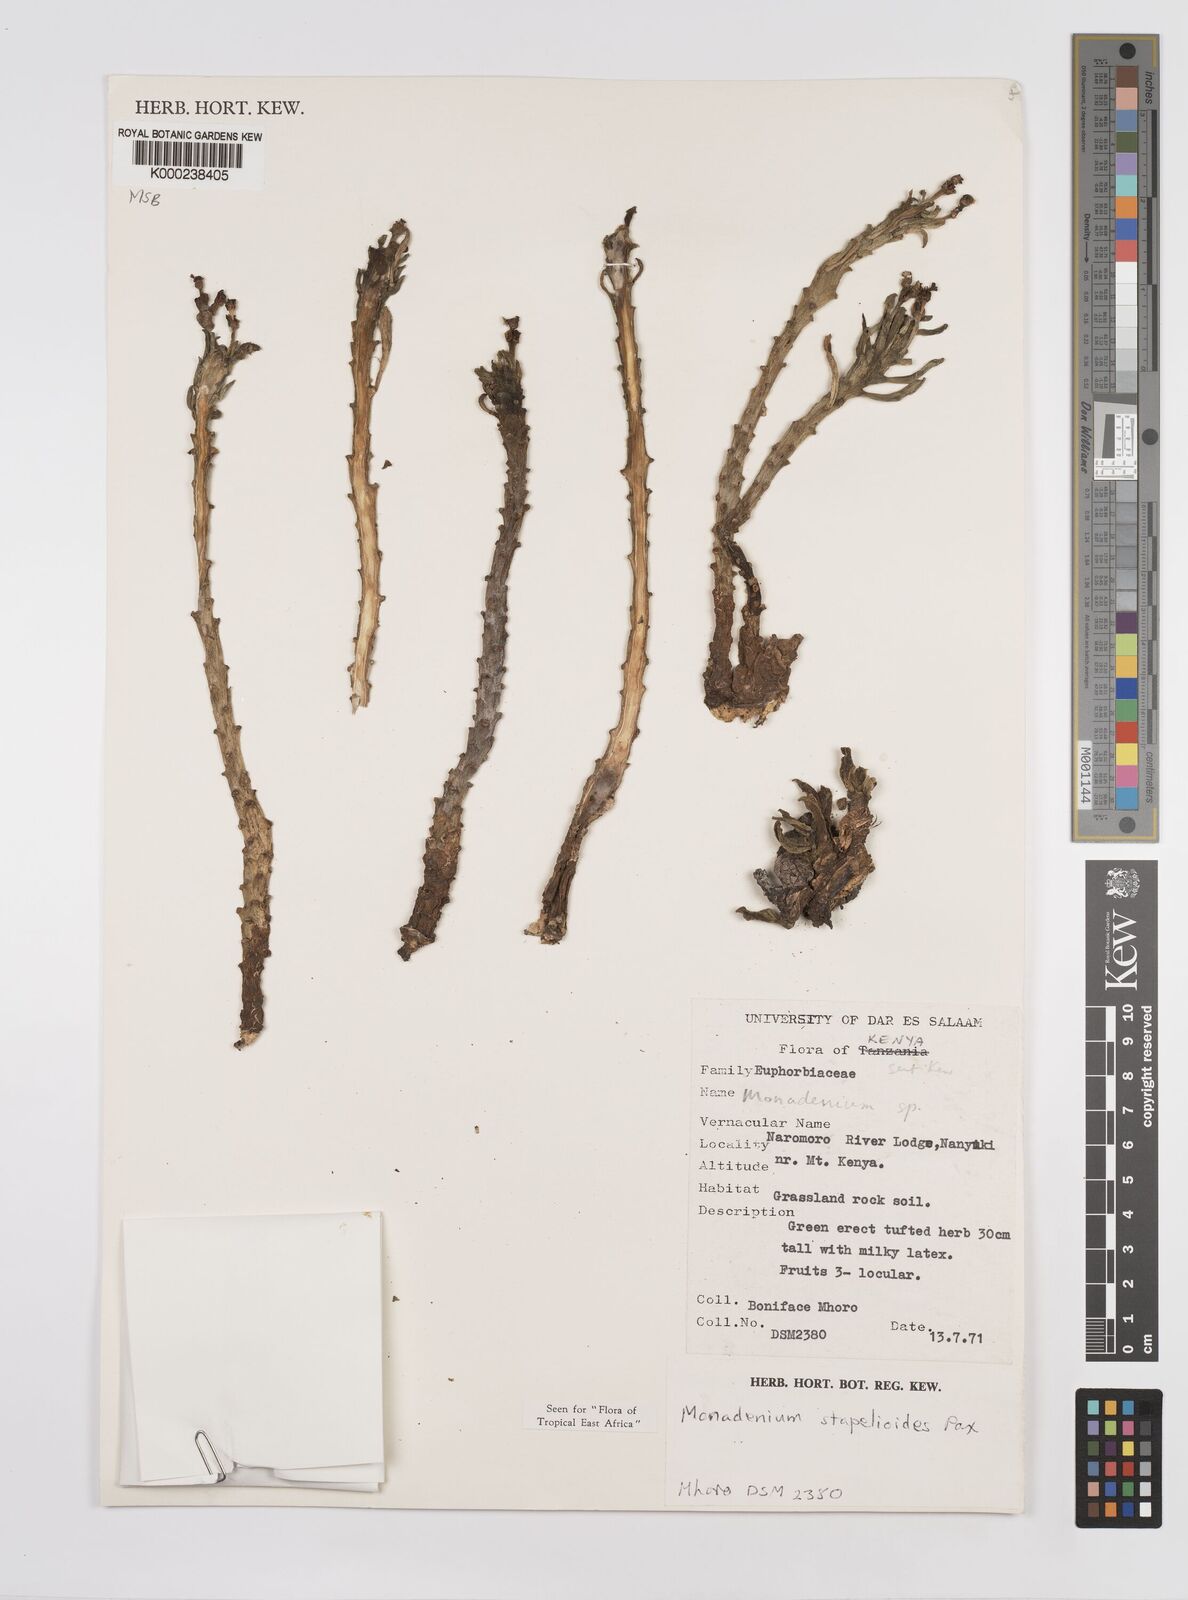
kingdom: Plantae
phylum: Tracheophyta
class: Magnoliopsida
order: Malpighiales
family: Euphorbiaceae
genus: Euphorbia
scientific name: Euphorbia succulenta
